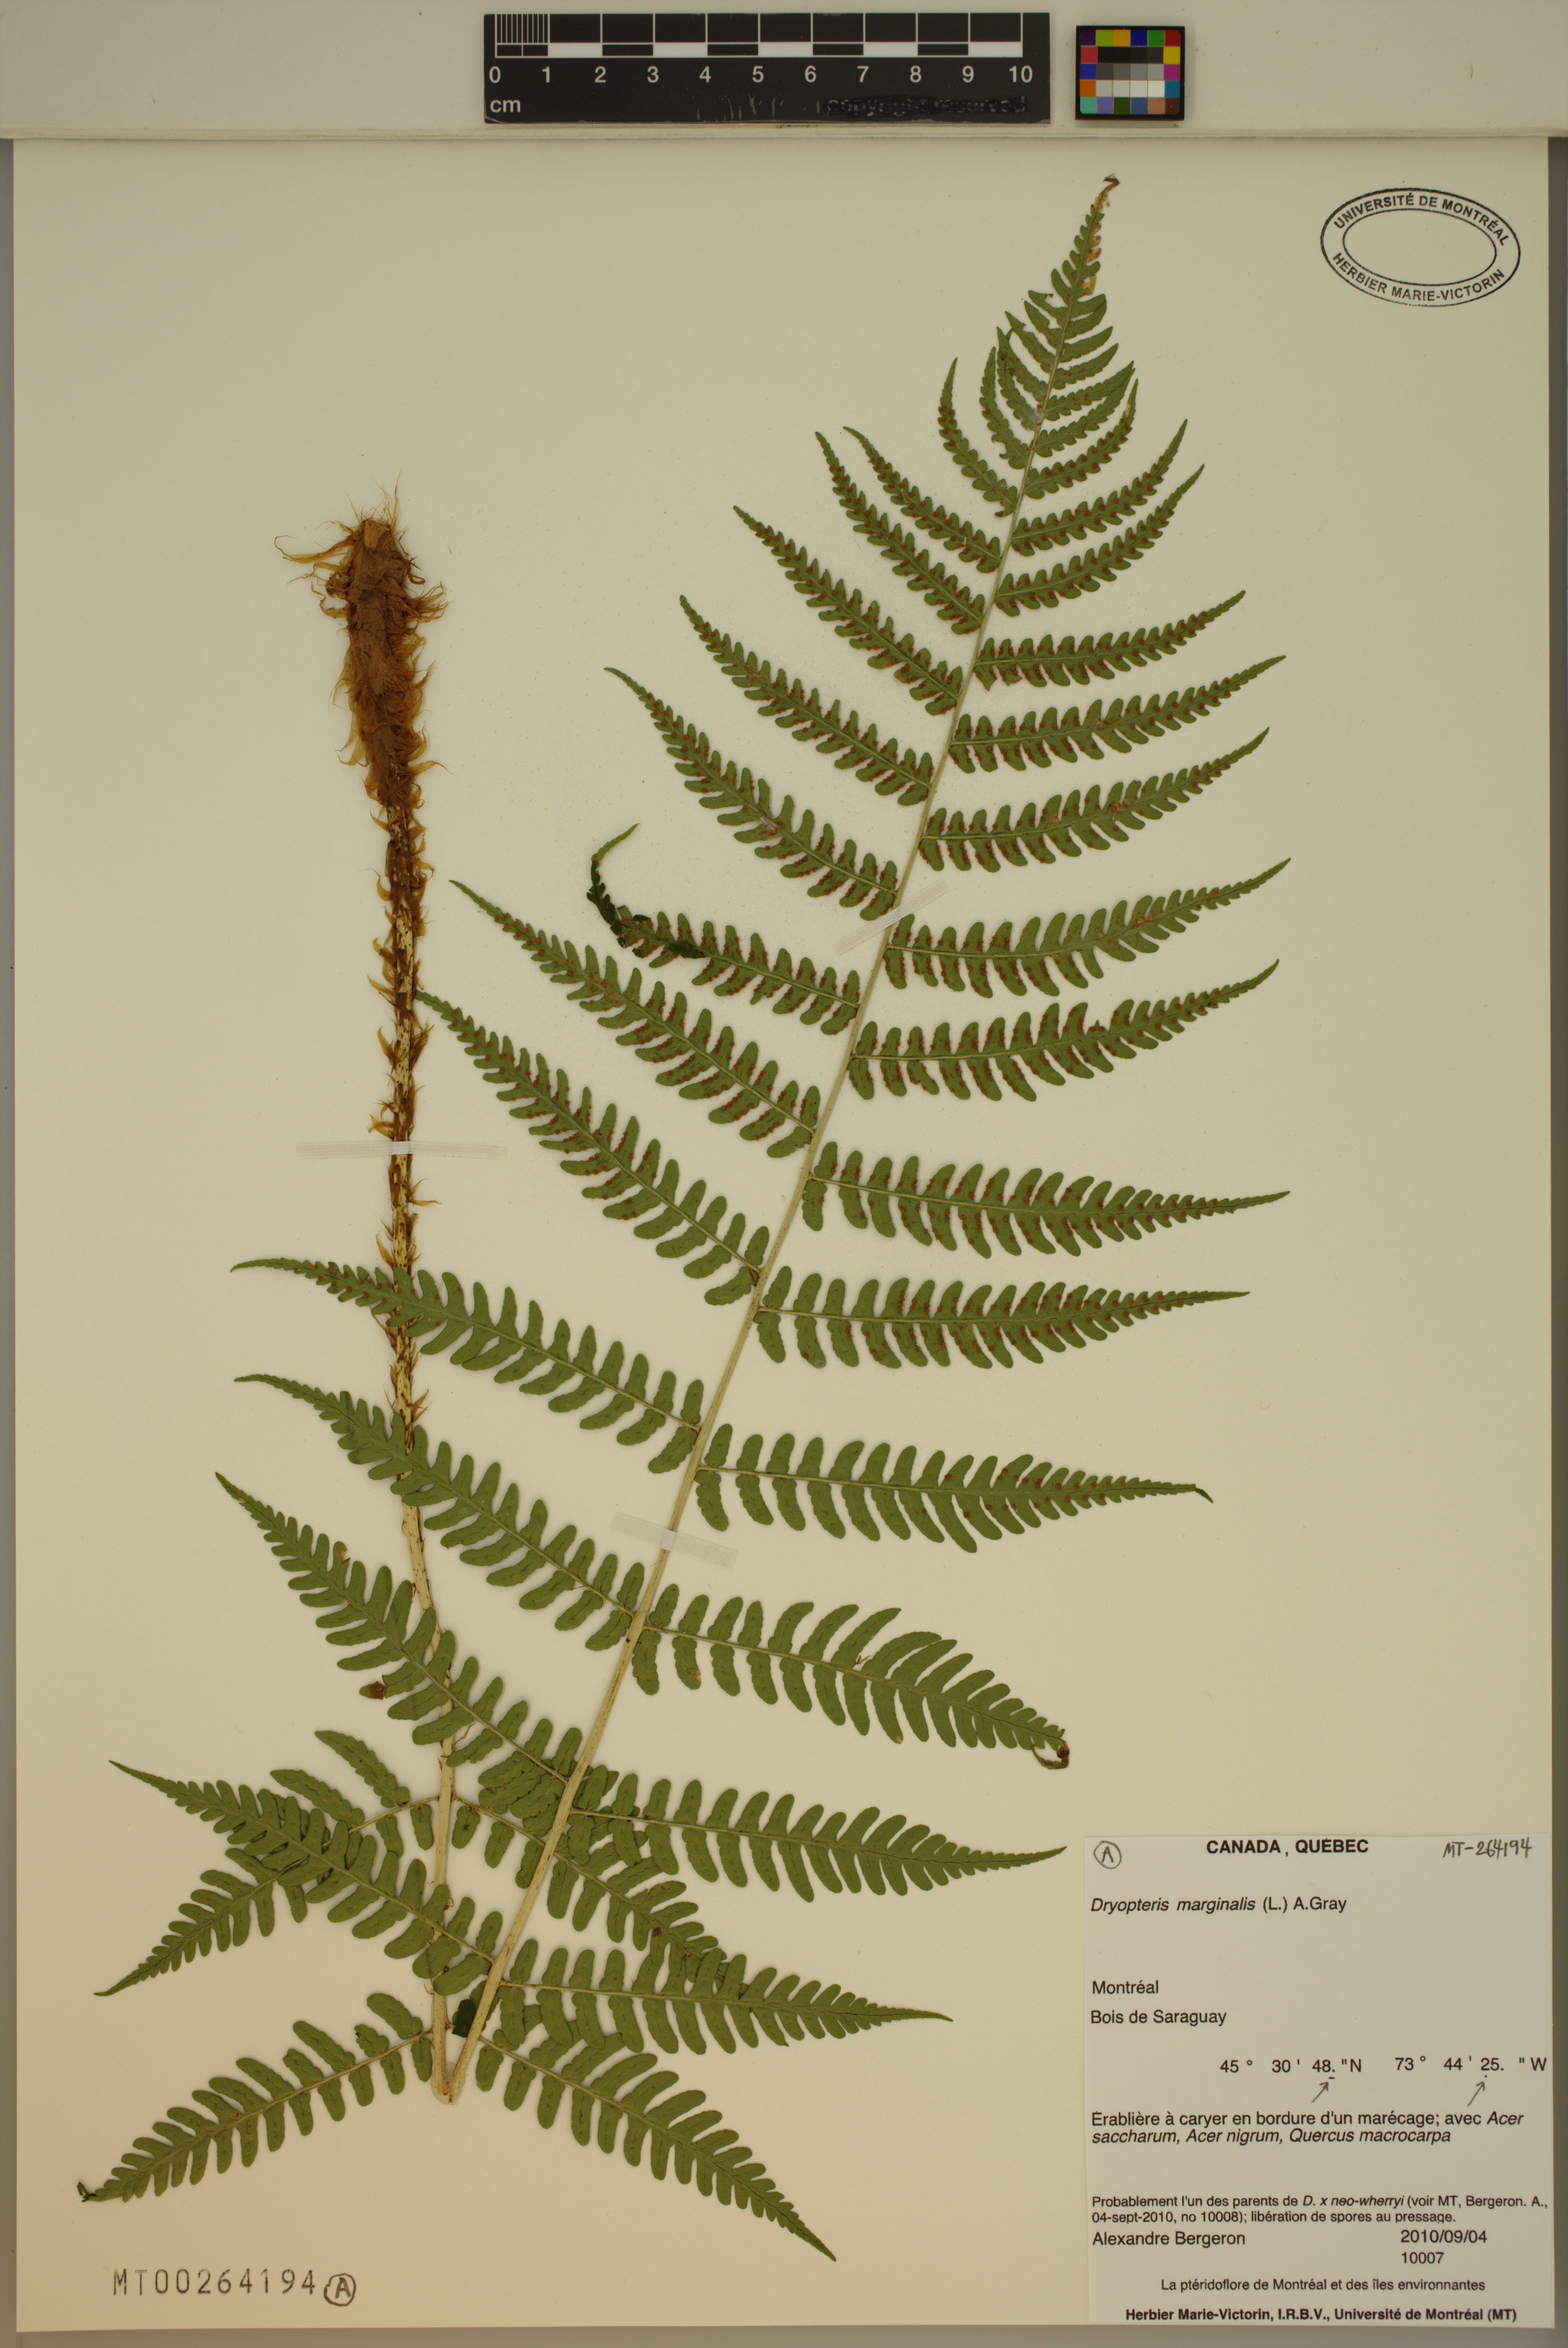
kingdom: Plantae
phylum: Tracheophyta
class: Polypodiopsida
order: Polypodiales
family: Dryopteridaceae
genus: Dryopteris
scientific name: Dryopteris marginalis
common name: Marginal wood fern
